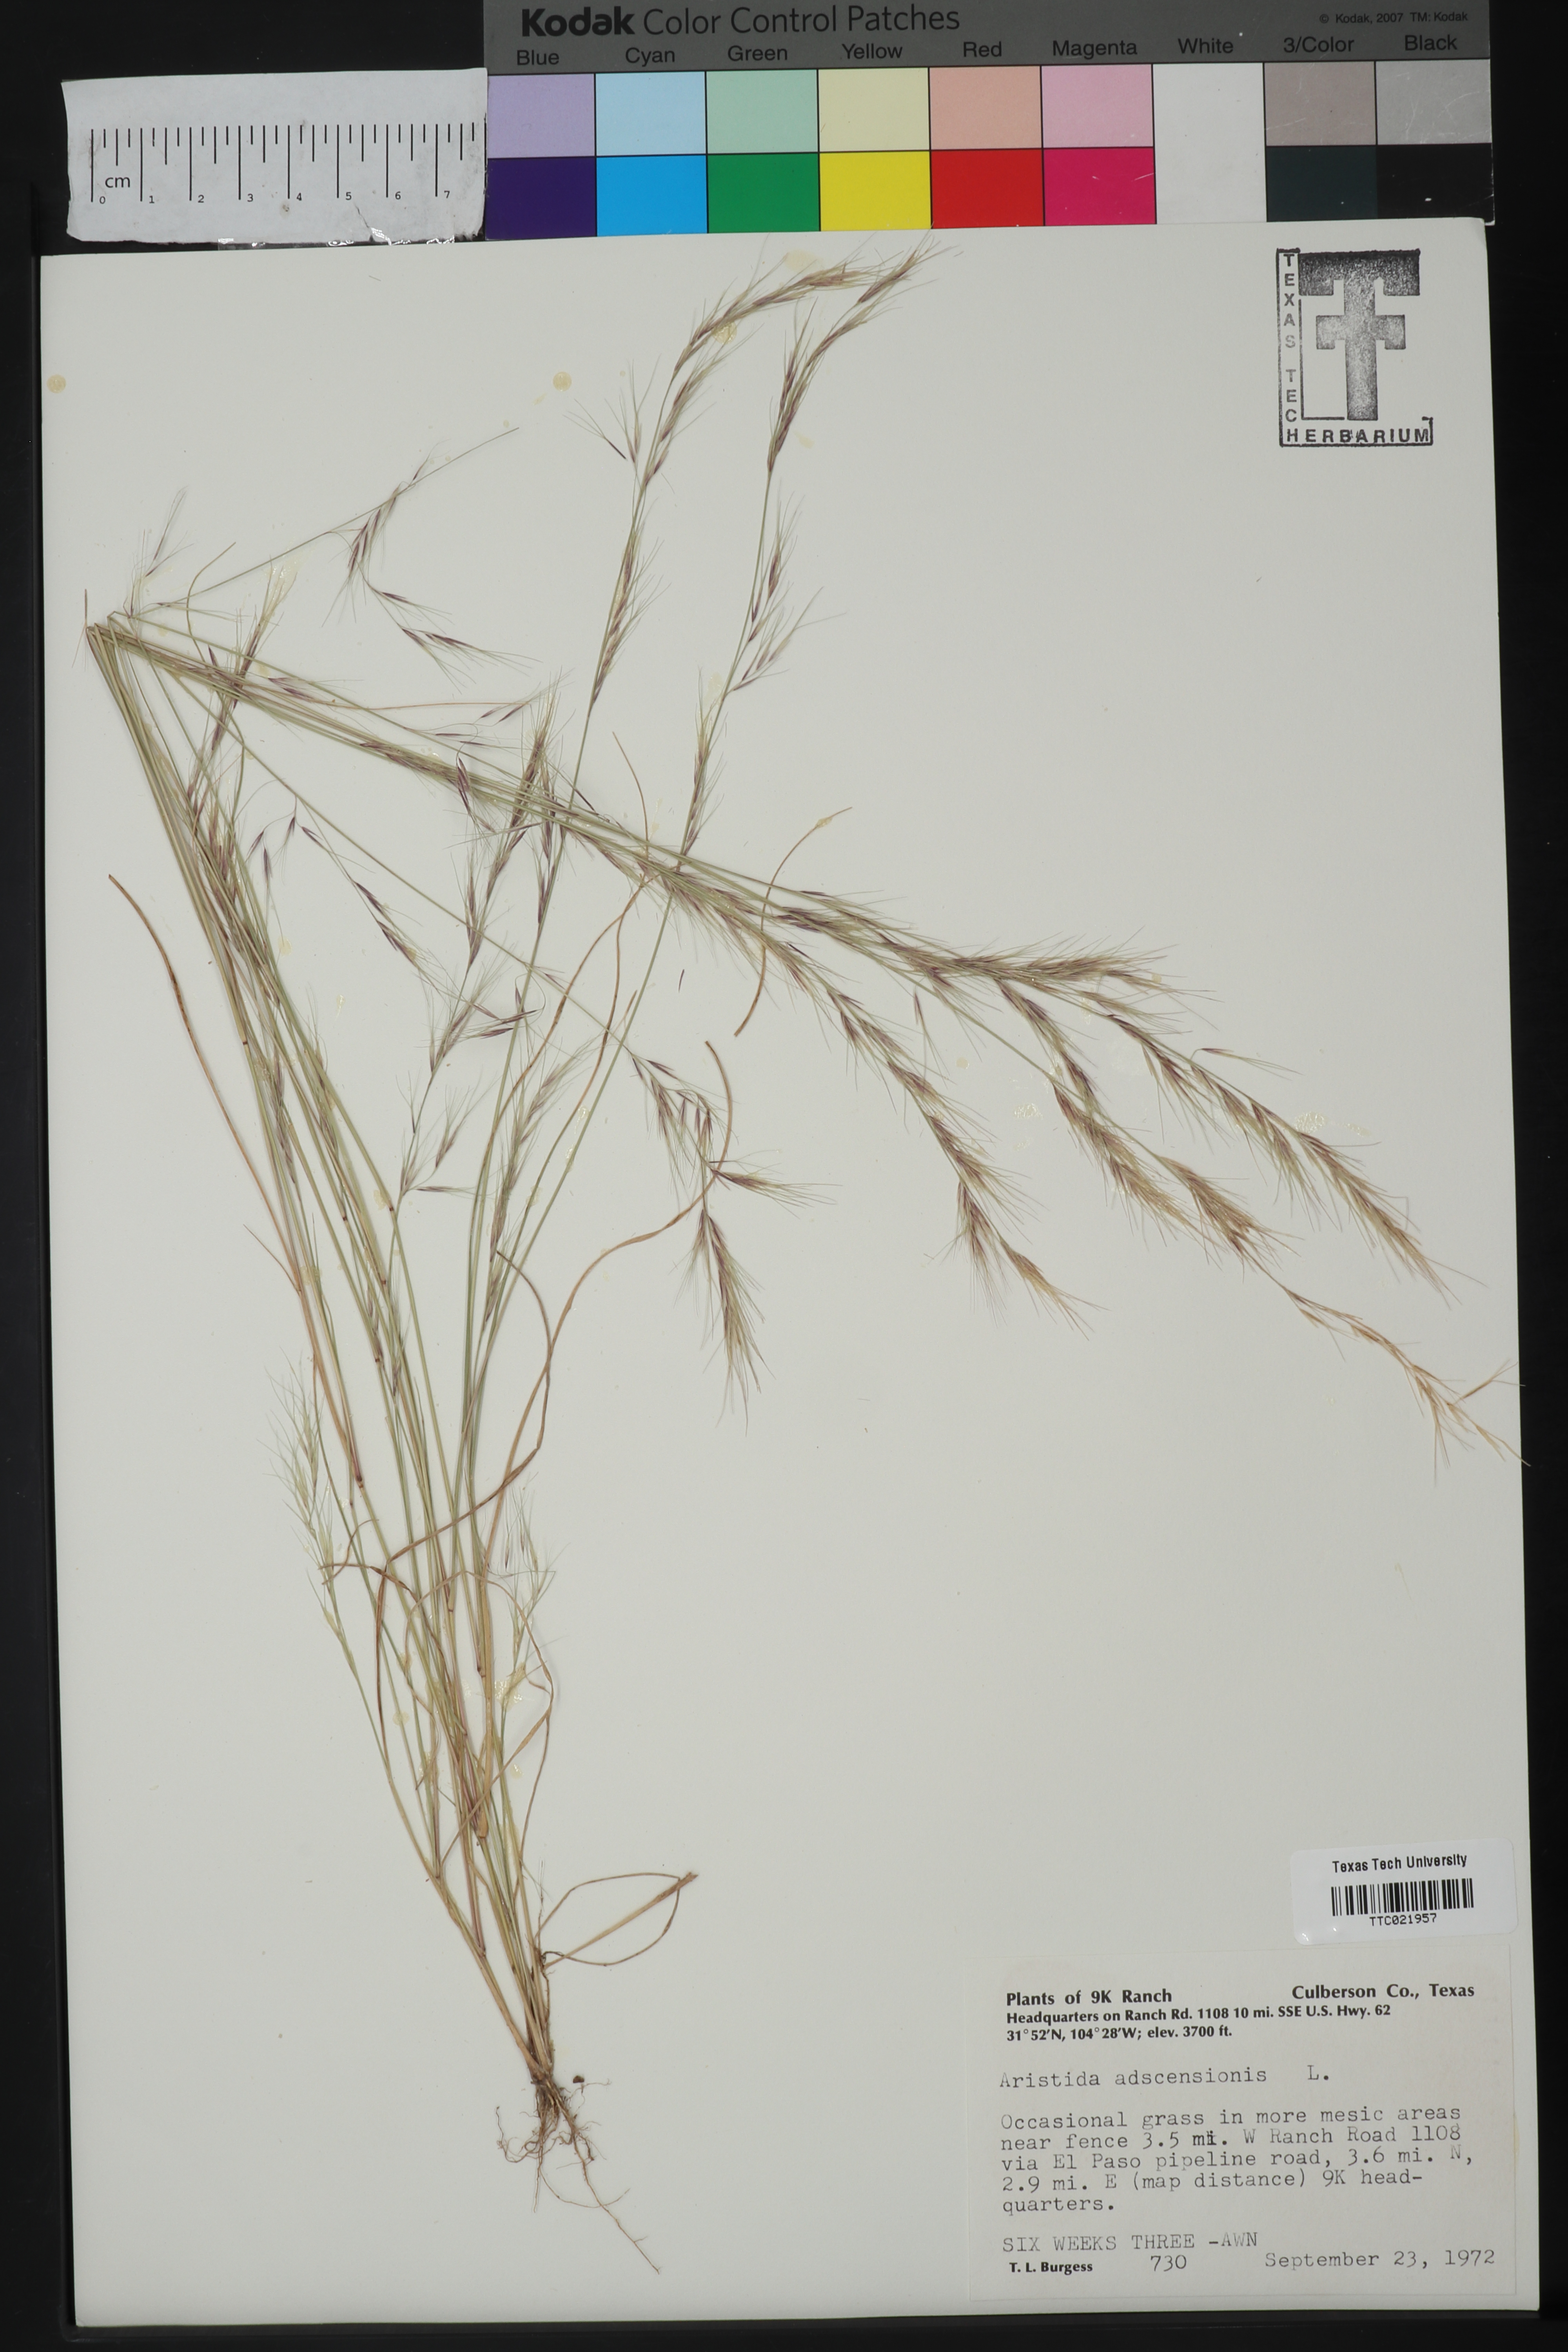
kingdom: Plantae
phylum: Tracheophyta
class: Liliopsida
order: Poales
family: Poaceae
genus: Aristida
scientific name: Aristida adscensionis
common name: Sixweeks threeawn
